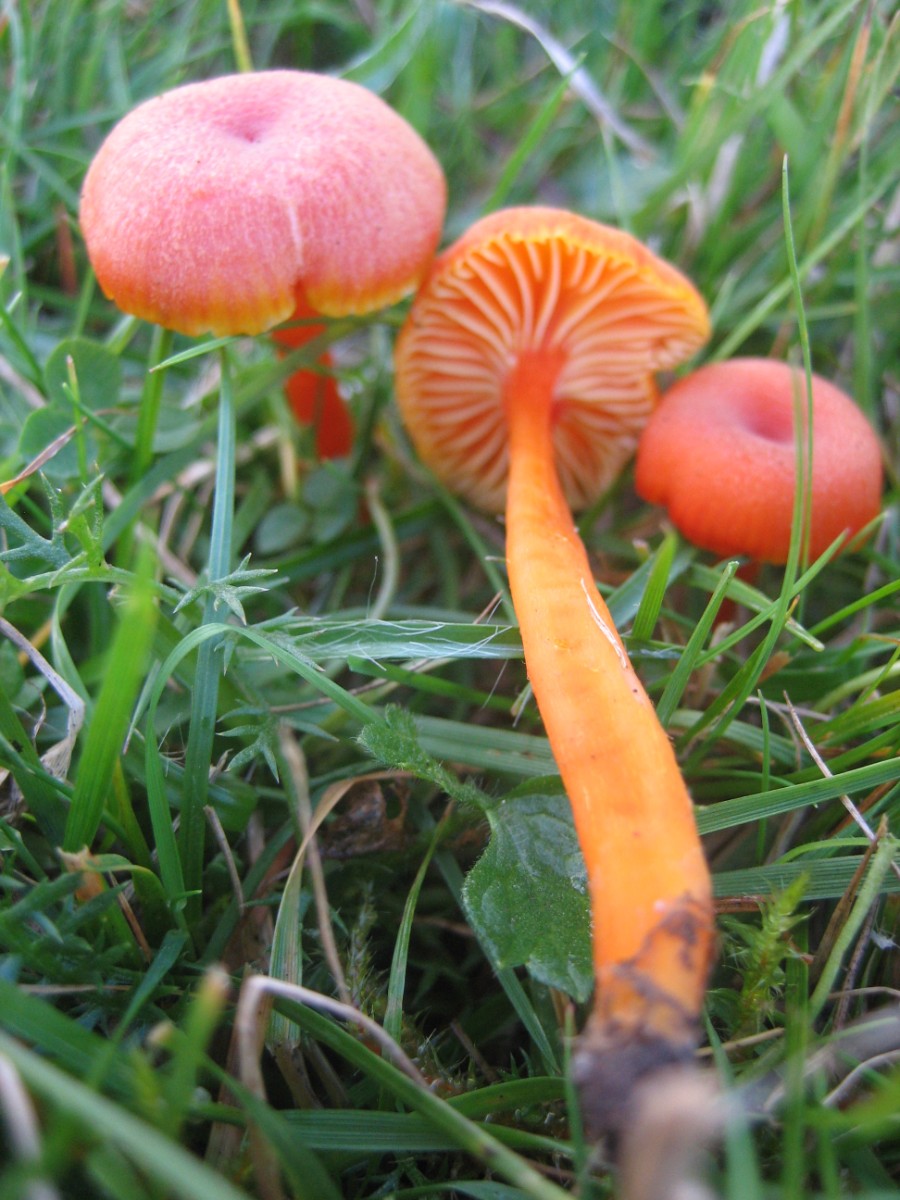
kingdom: Fungi
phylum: Basidiomycota
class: Agaricomycetes
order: Agaricales
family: Hygrophoraceae
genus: Hygrocybe
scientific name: Hygrocybe miniata
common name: mønje-vokshat
